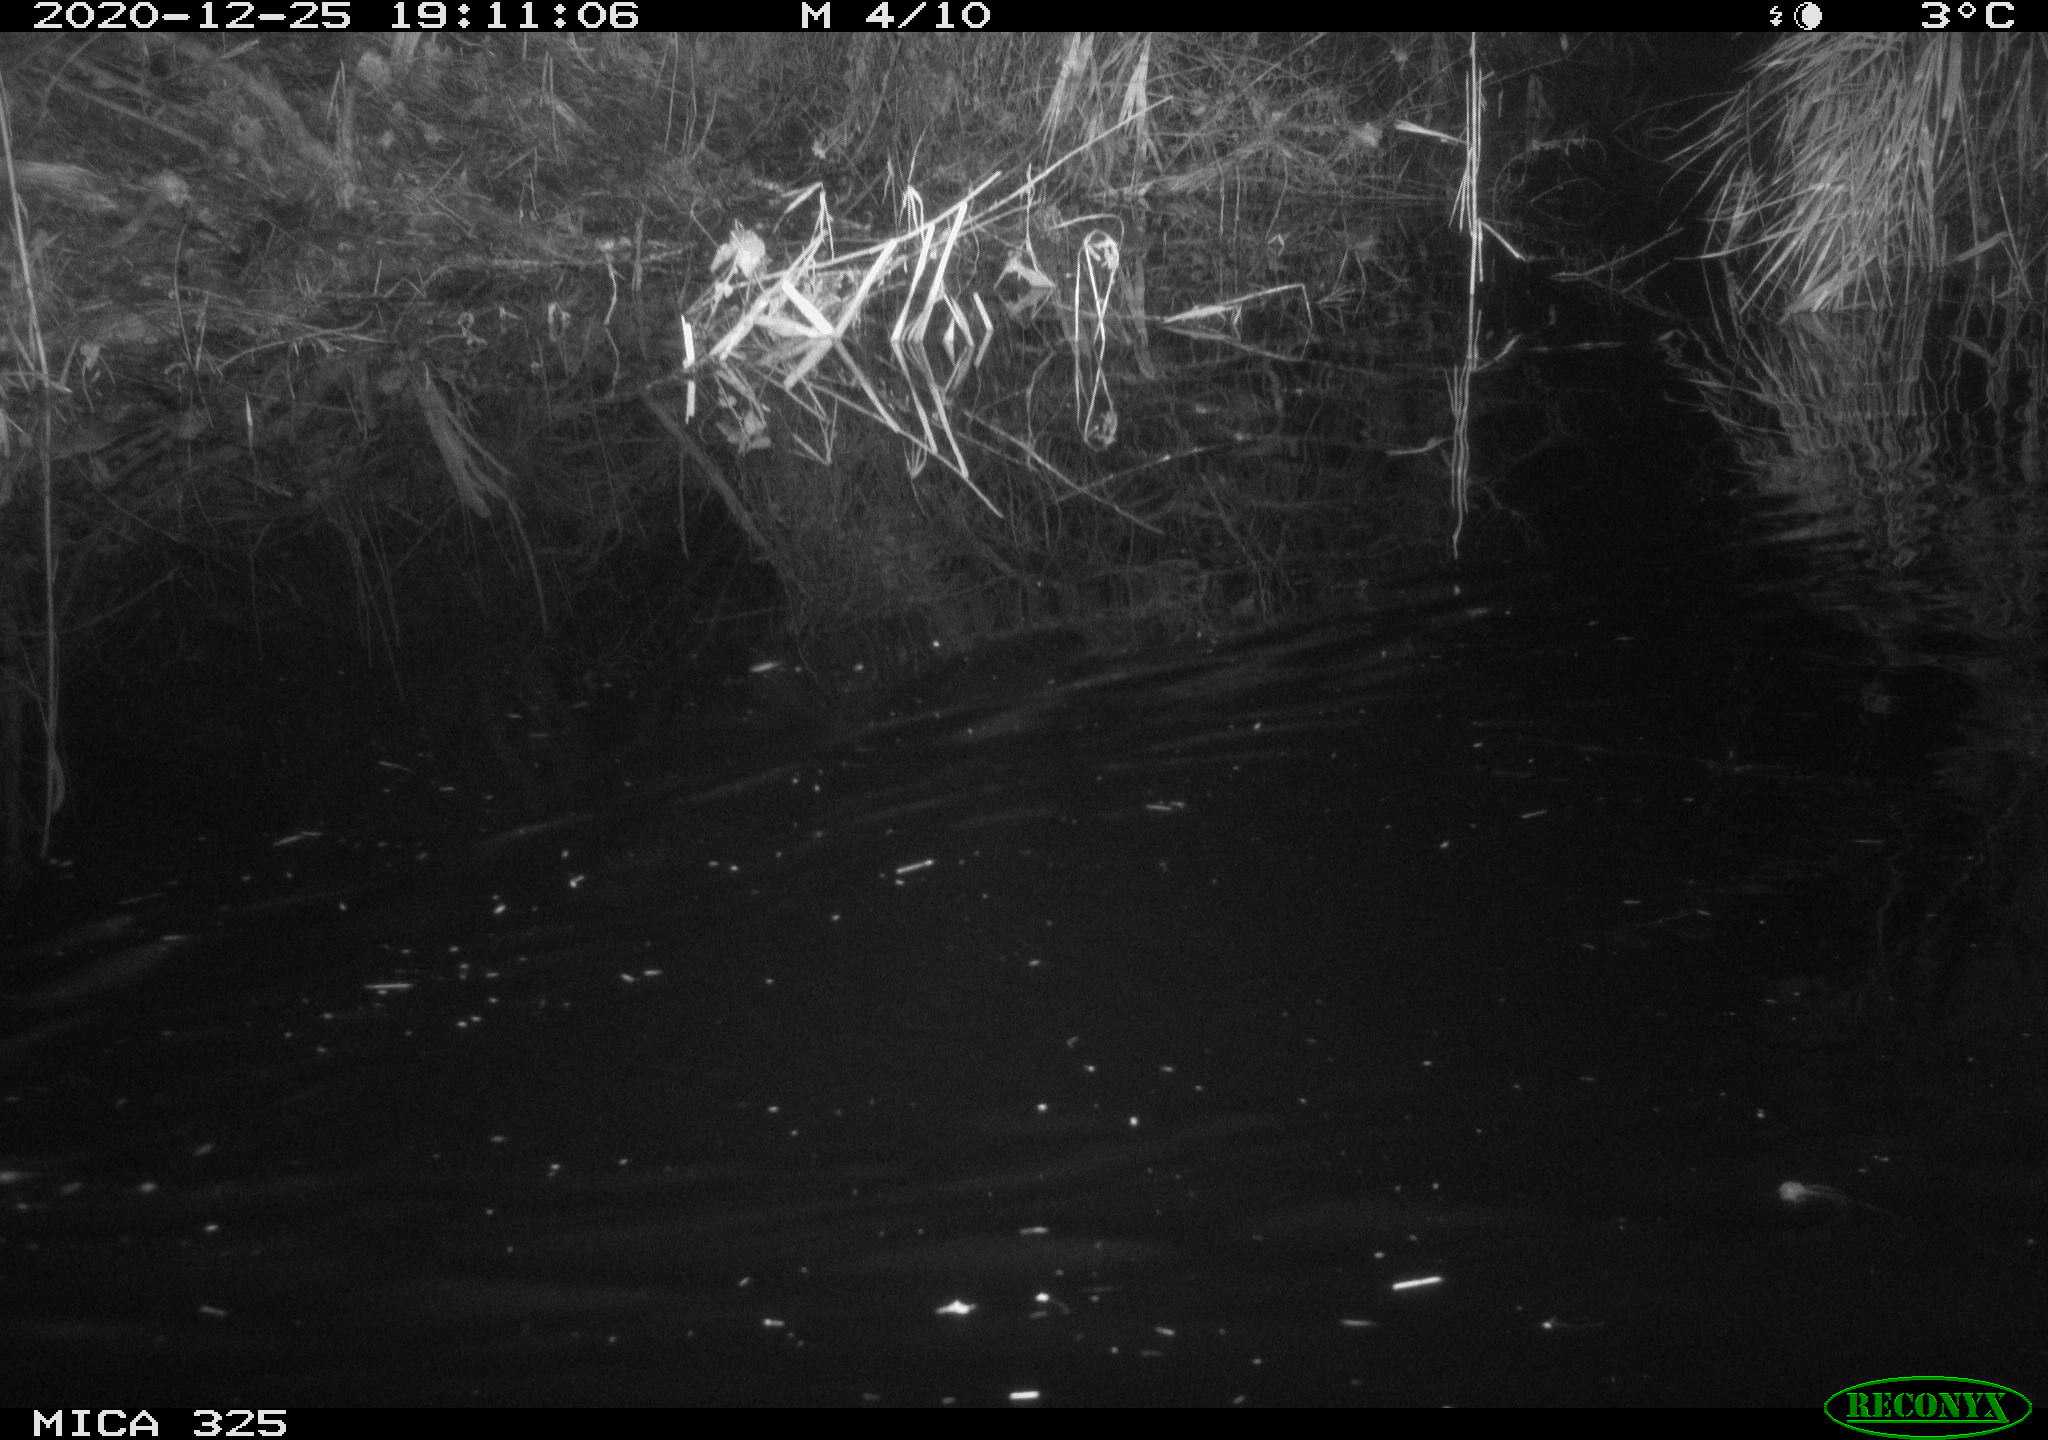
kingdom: Animalia
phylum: Chordata
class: Mammalia
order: Rodentia
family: Cricetidae
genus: Ondatra
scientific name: Ondatra zibethicus
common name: Muskrat
